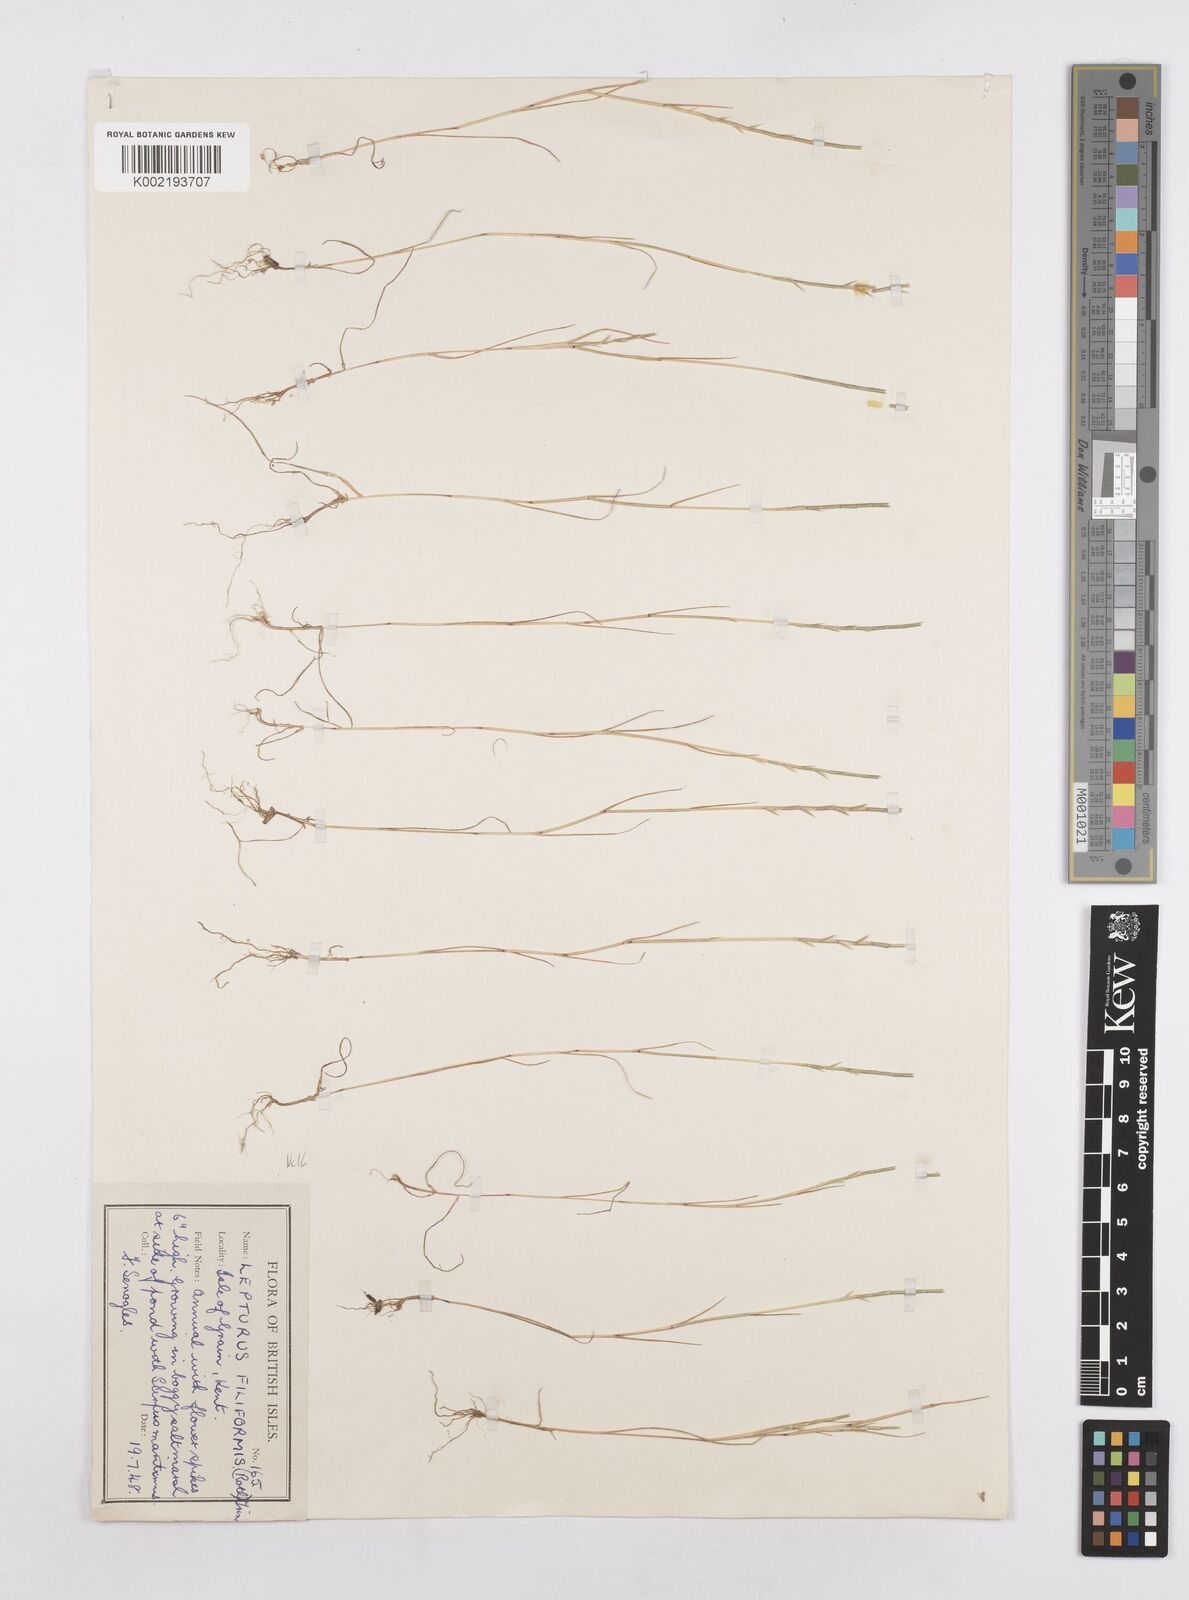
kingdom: Plantae
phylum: Tracheophyta
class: Liliopsida
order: Poales
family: Poaceae
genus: Parapholis
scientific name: Parapholis strigosa
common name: Hard-grass
